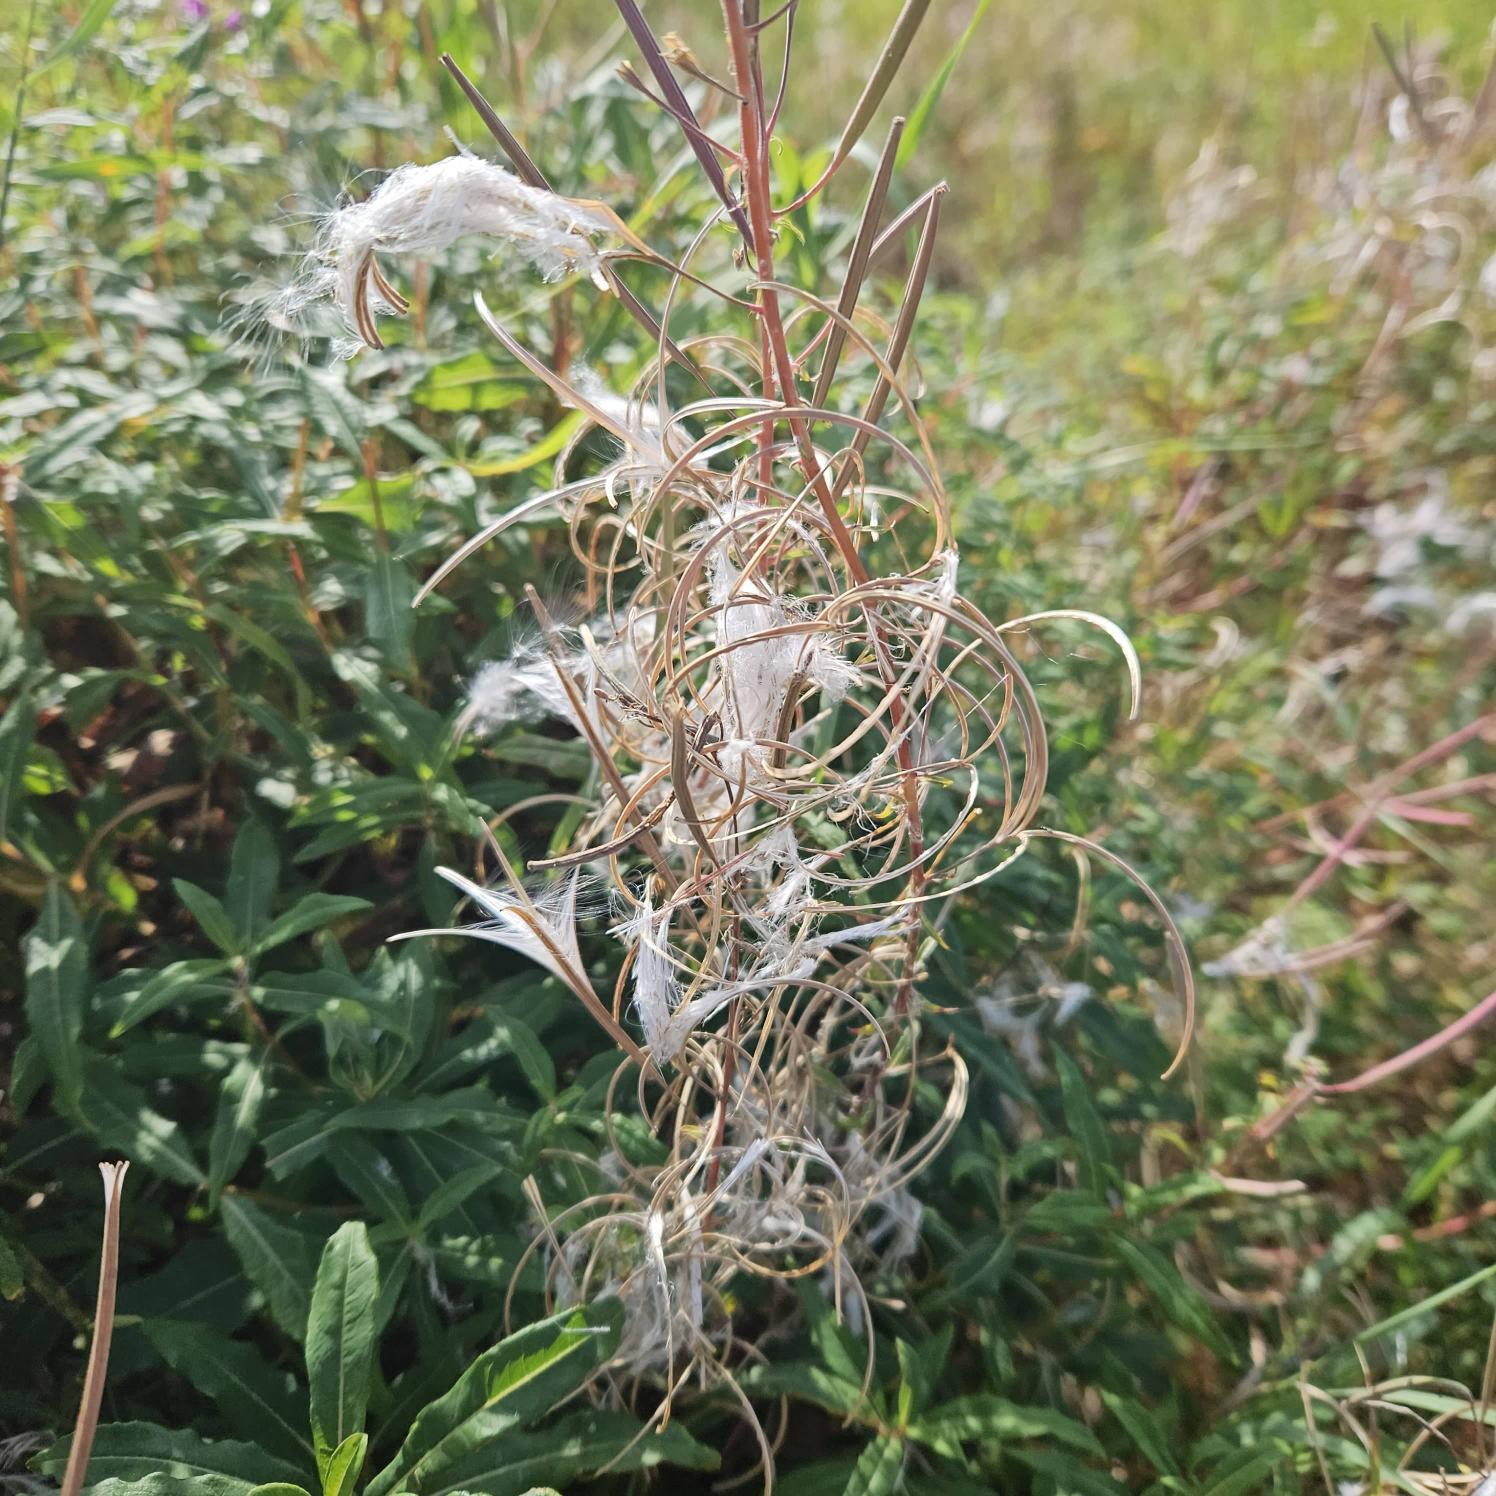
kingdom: Plantae
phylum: Tracheophyta
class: Magnoliopsida
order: Myrtales
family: Onagraceae
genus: Chamaenerion
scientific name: Chamaenerion angustifolium
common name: Gederams
